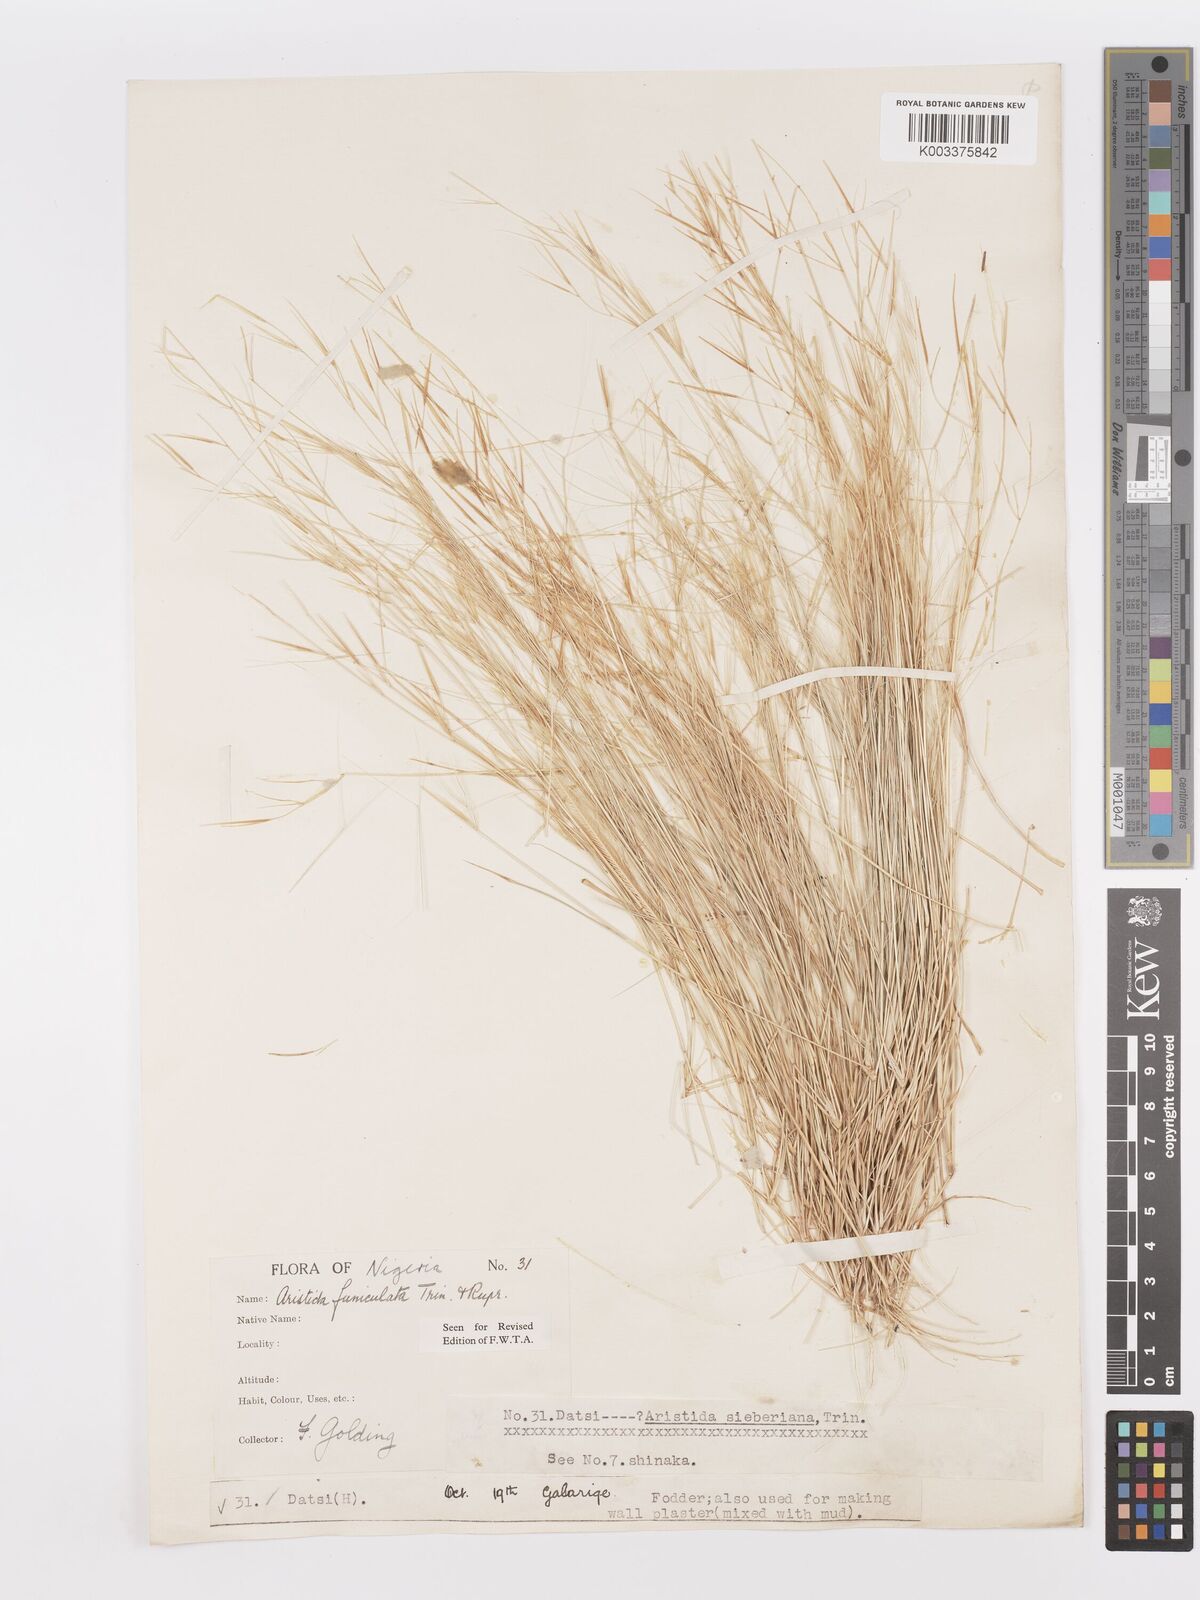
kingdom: Plantae
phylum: Tracheophyta
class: Liliopsida
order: Poales
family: Poaceae
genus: Aristida
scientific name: Aristida funiculata
